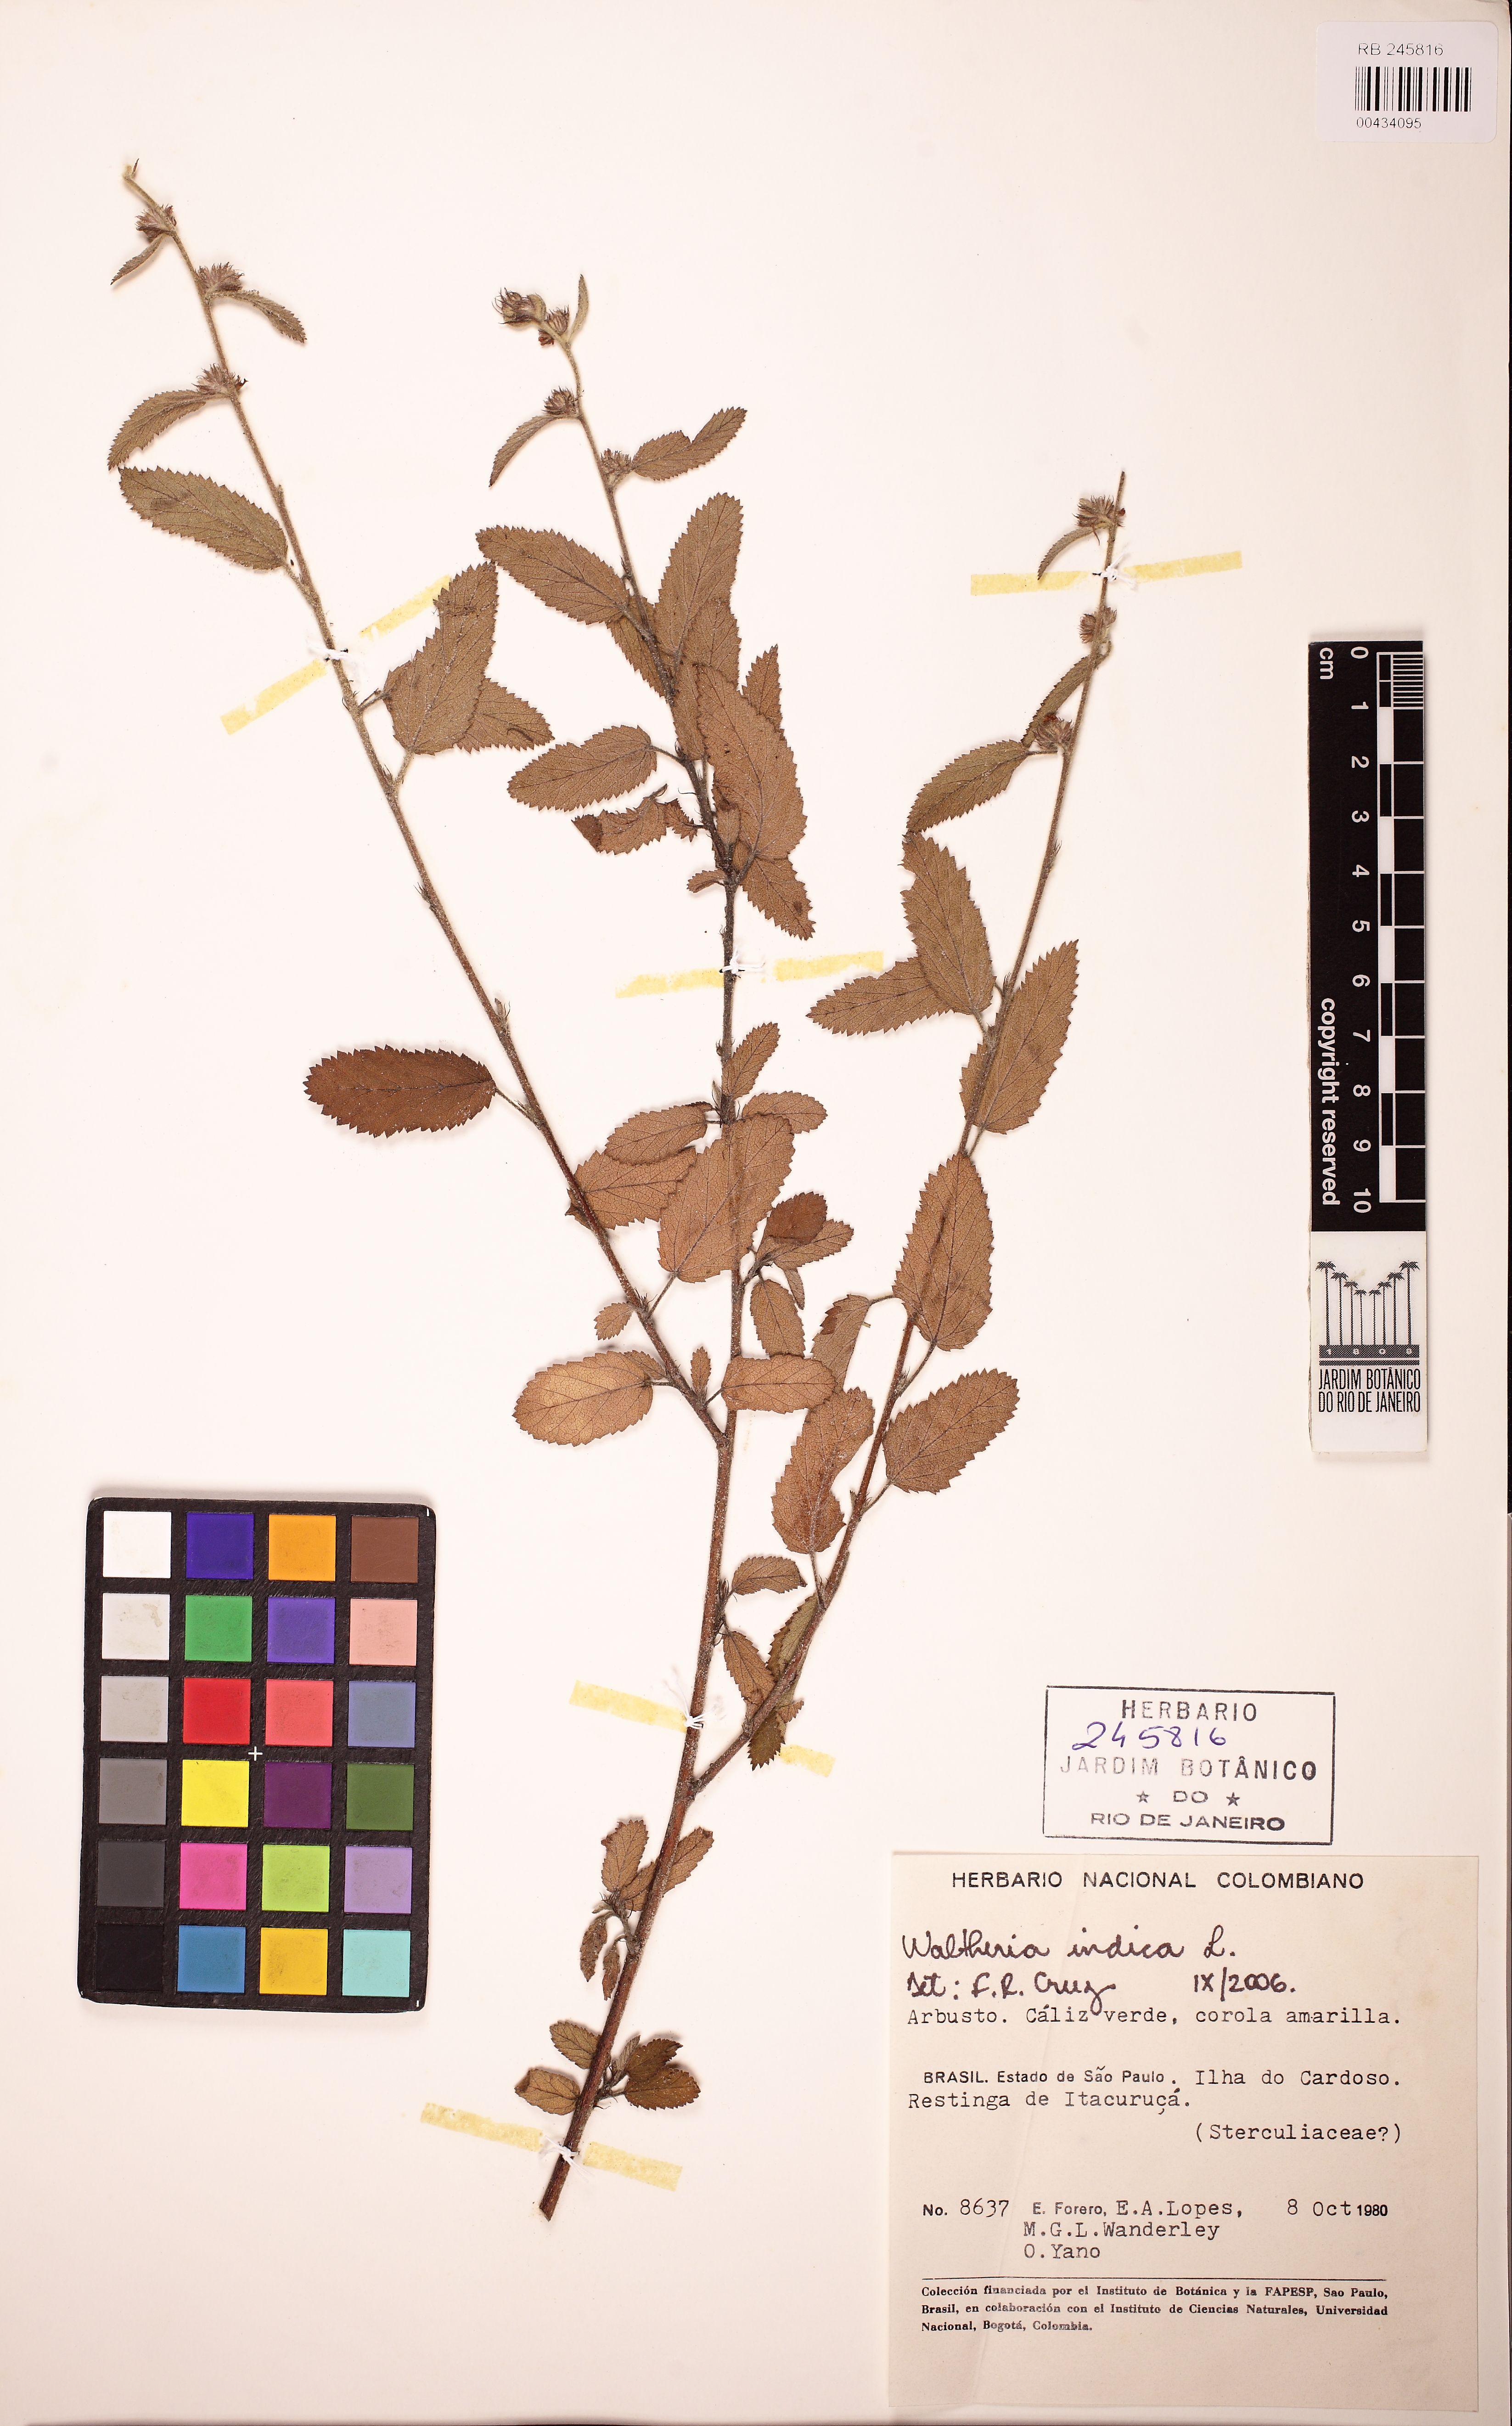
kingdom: Plantae
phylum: Tracheophyta
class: Magnoliopsida
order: Malvales
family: Malvaceae
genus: Waltheria
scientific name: Waltheria indica
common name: Leather-coat
